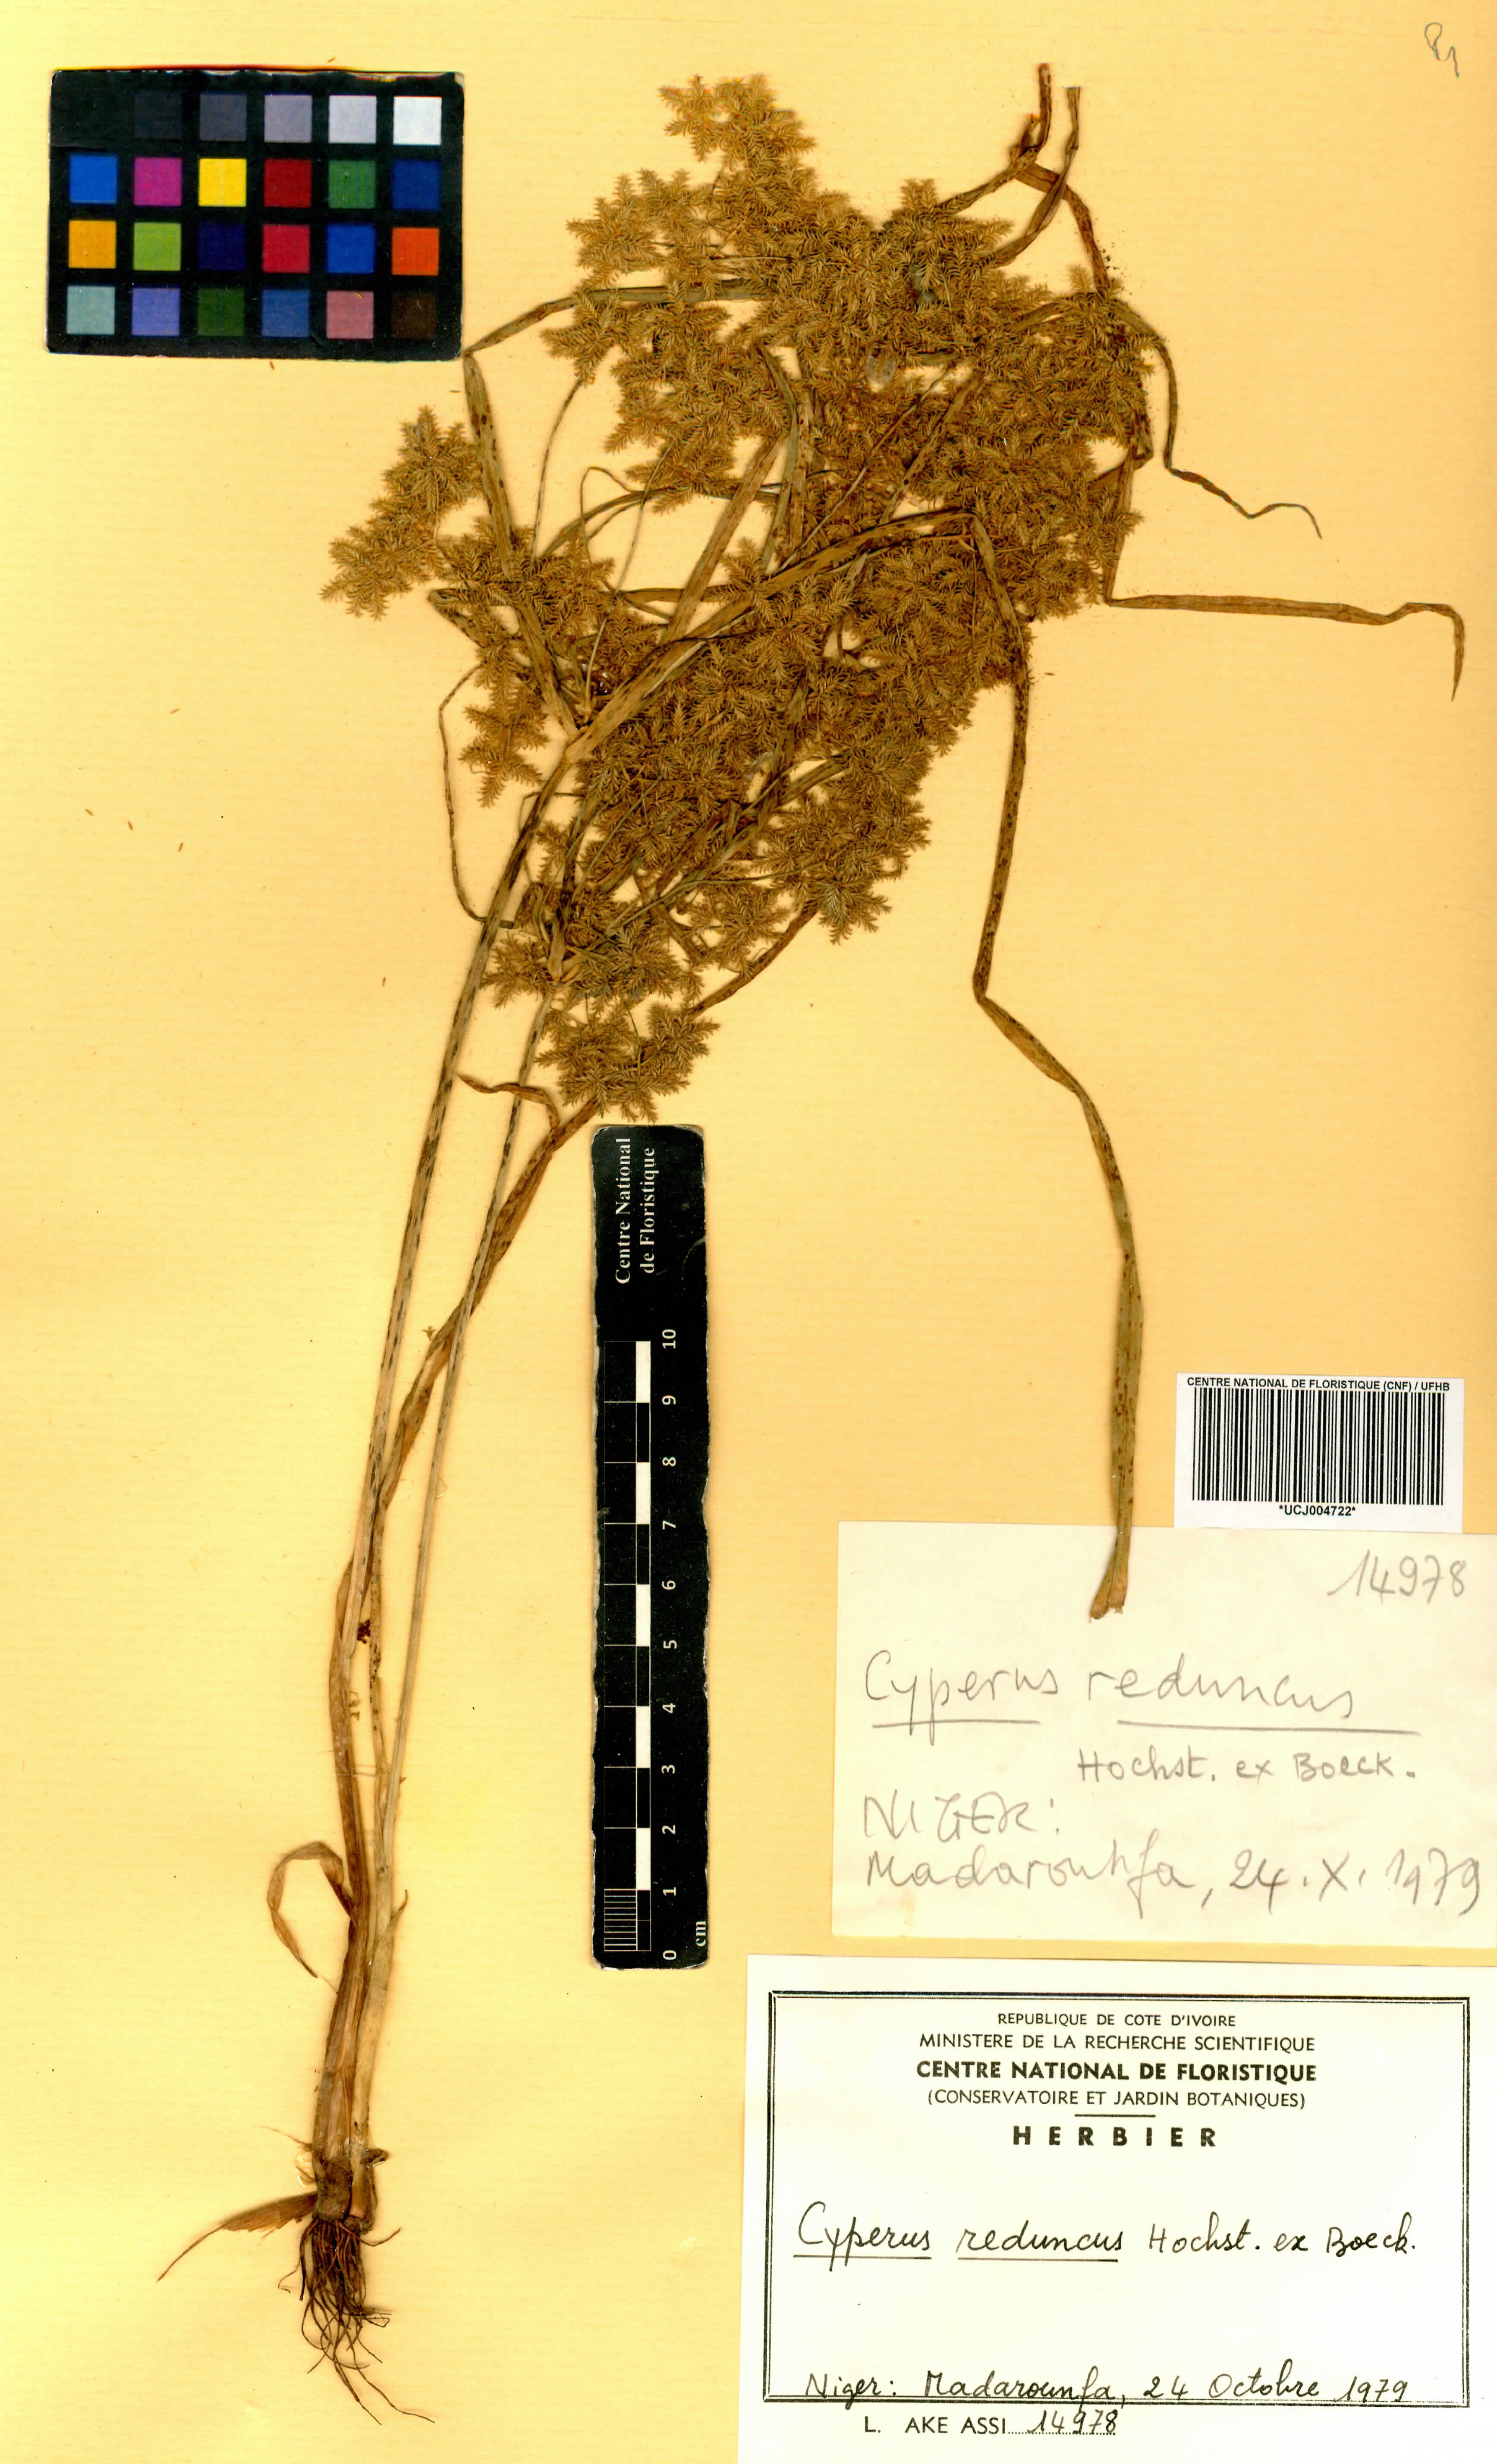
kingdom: Plantae
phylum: Tracheophyta
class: Liliopsida
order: Poales
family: Cyperaceae
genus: Cyperus
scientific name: Cyperus reduncus
